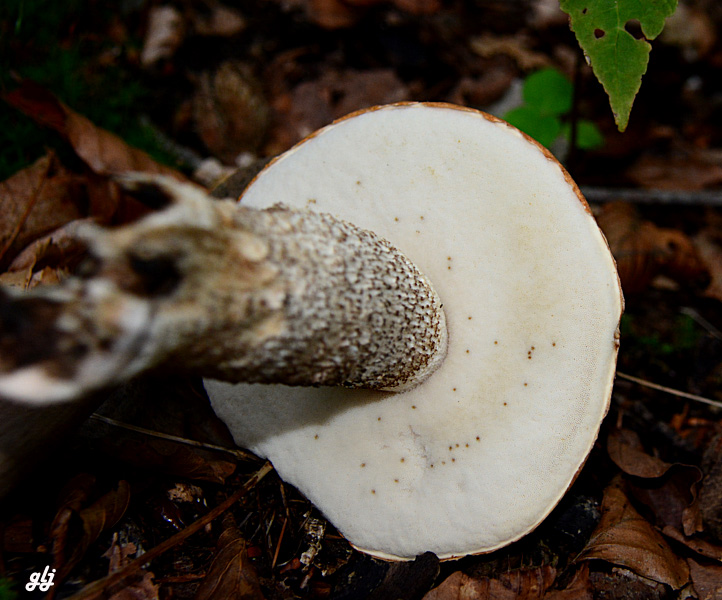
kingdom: Fungi
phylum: Basidiomycota
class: Agaricomycetes
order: Boletales
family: Boletaceae
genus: Leccinum
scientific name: Leccinum versipelle
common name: orange skælrørhat
